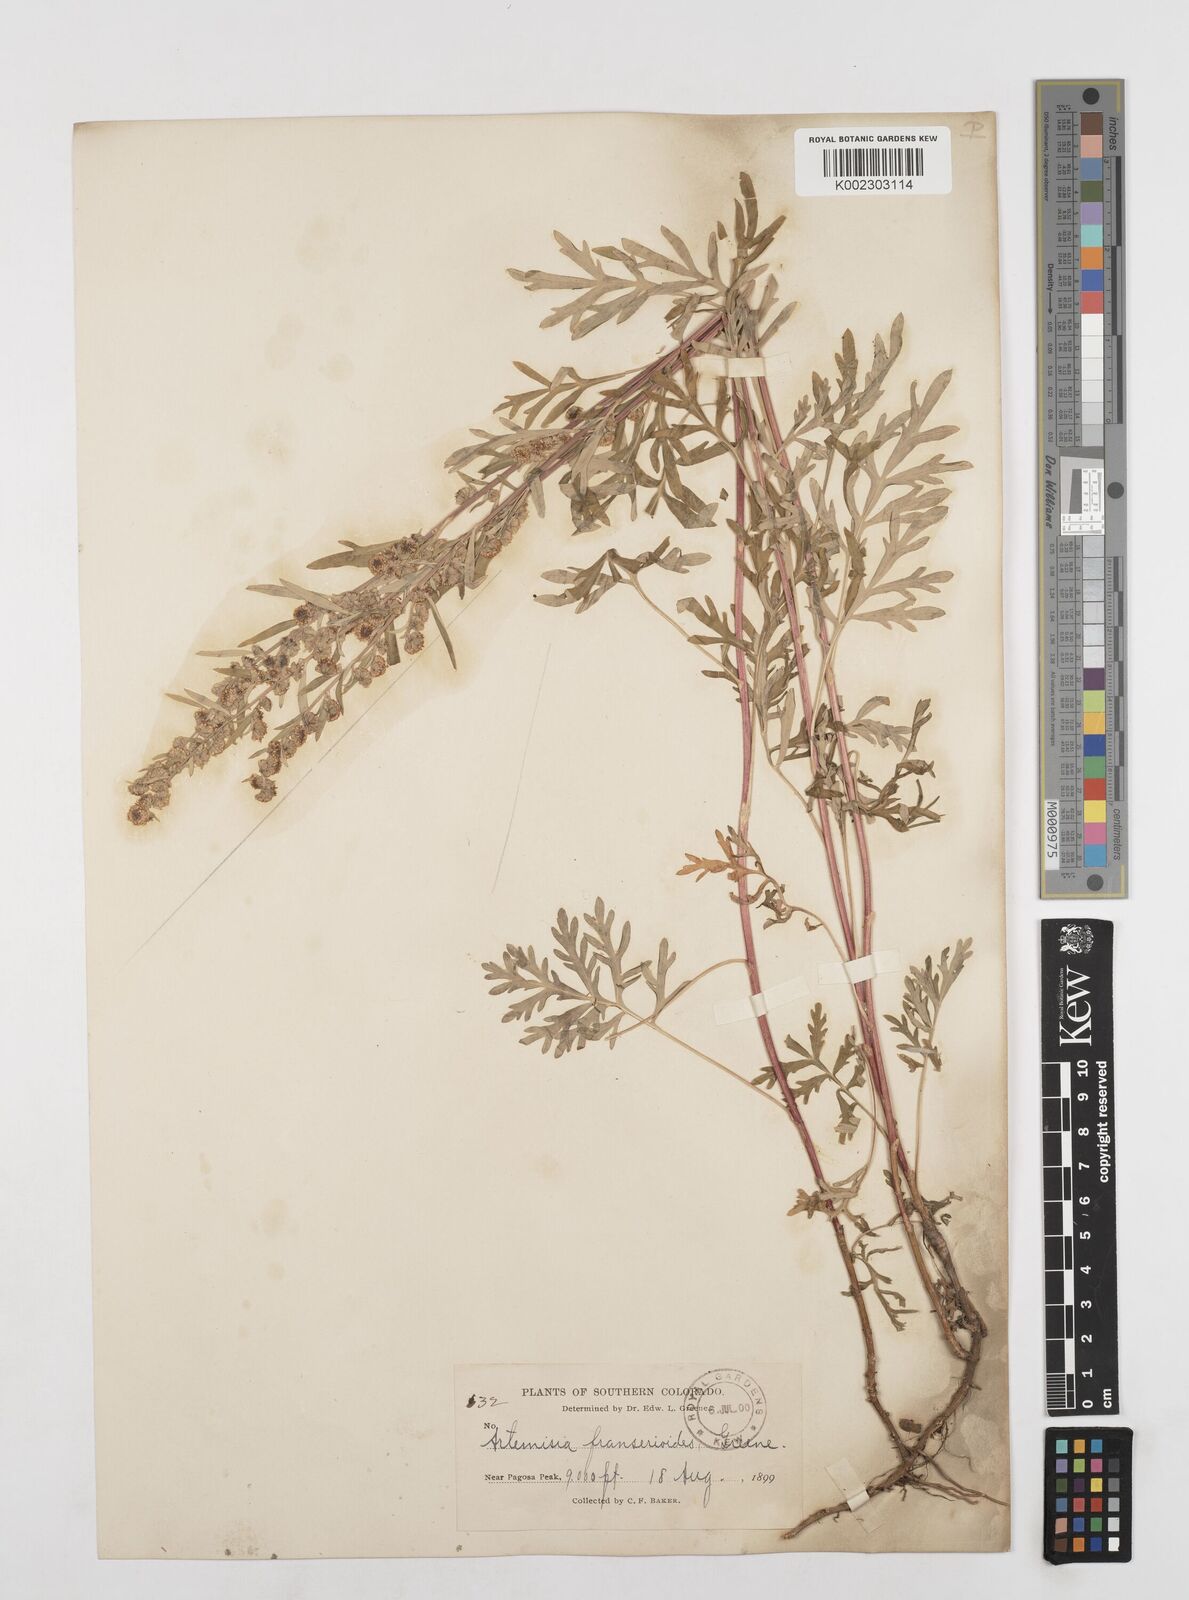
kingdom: Plantae
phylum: Tracheophyta
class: Magnoliopsida
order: Asterales
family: Asteraceae
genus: Artemisia
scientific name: Artemisia franserioides
